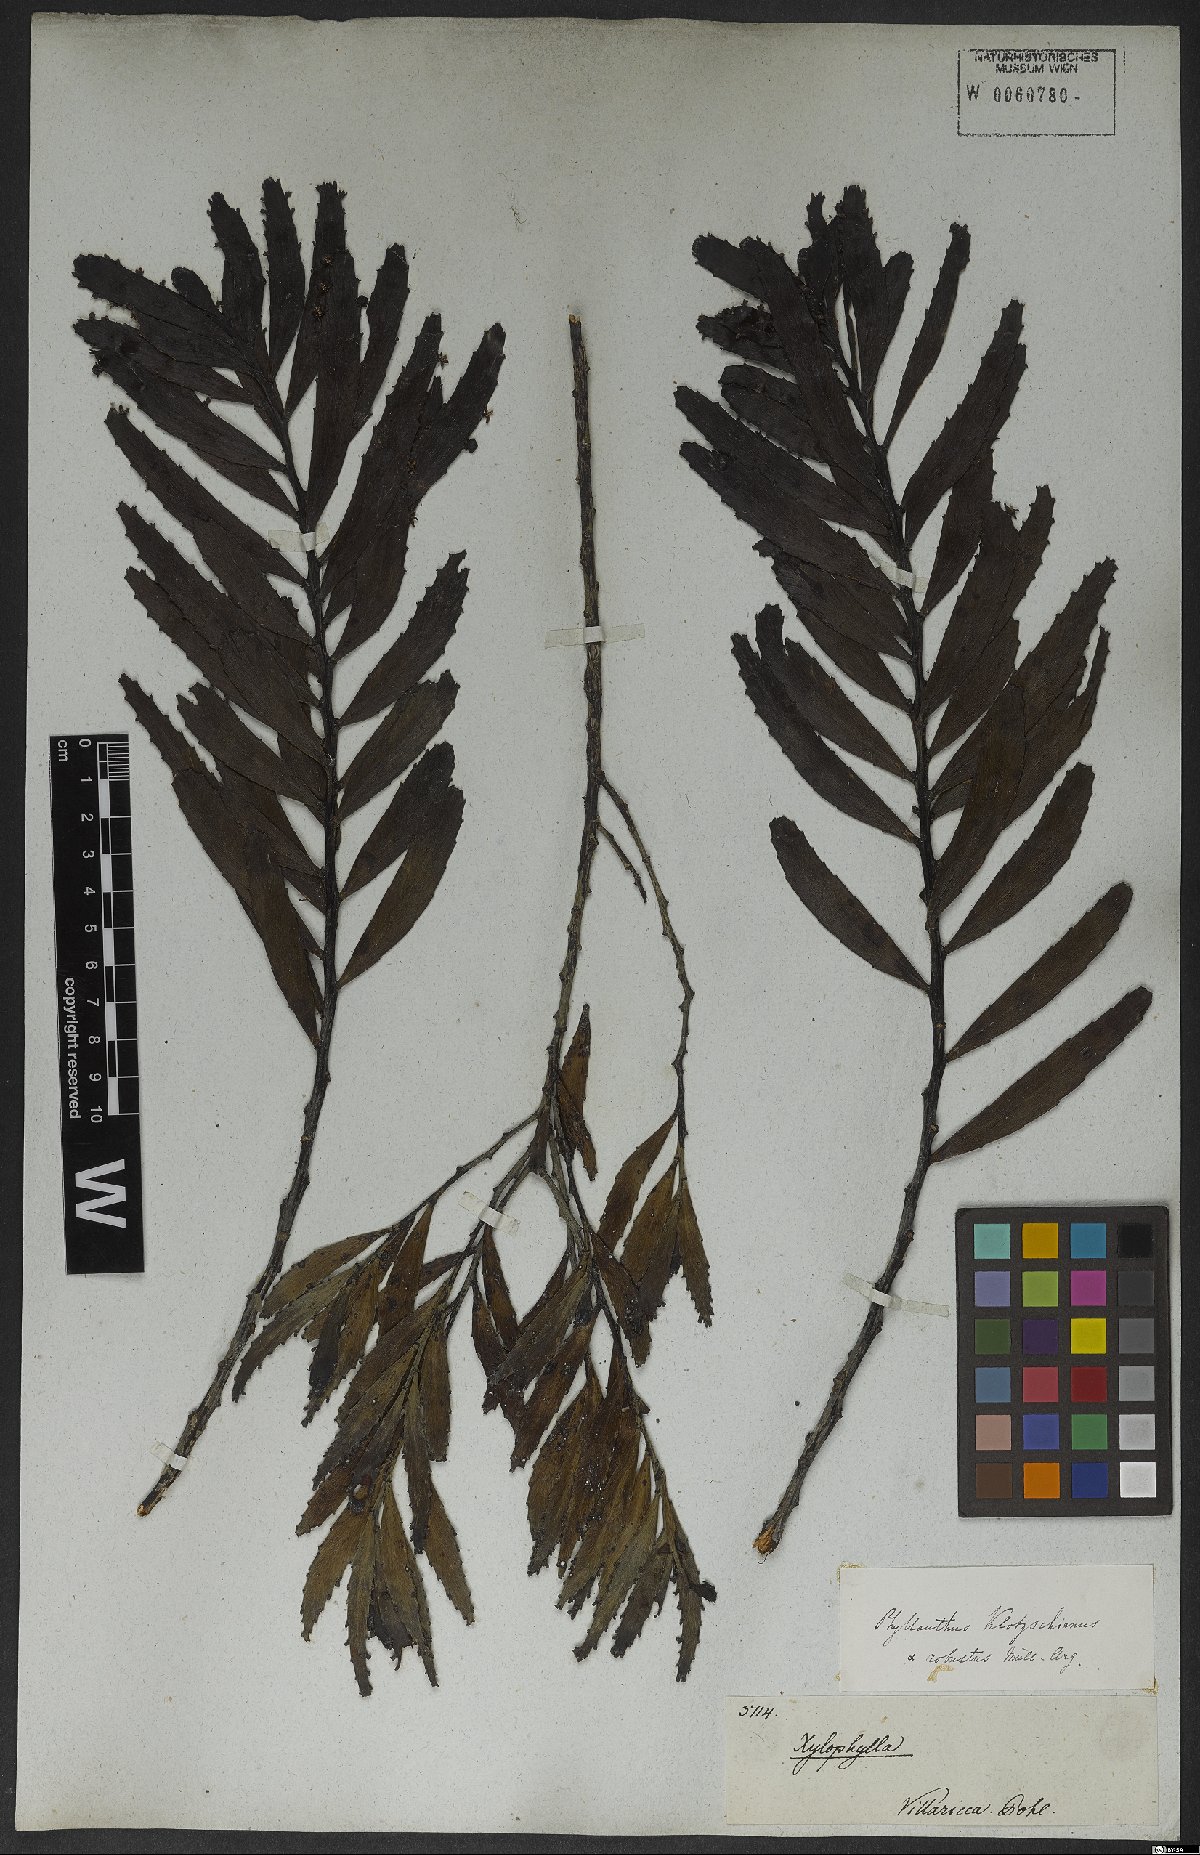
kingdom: Plantae
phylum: Tracheophyta
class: Magnoliopsida
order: Malpighiales
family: Phyllanthaceae
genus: Phyllanthus
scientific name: Phyllanthus robustus
